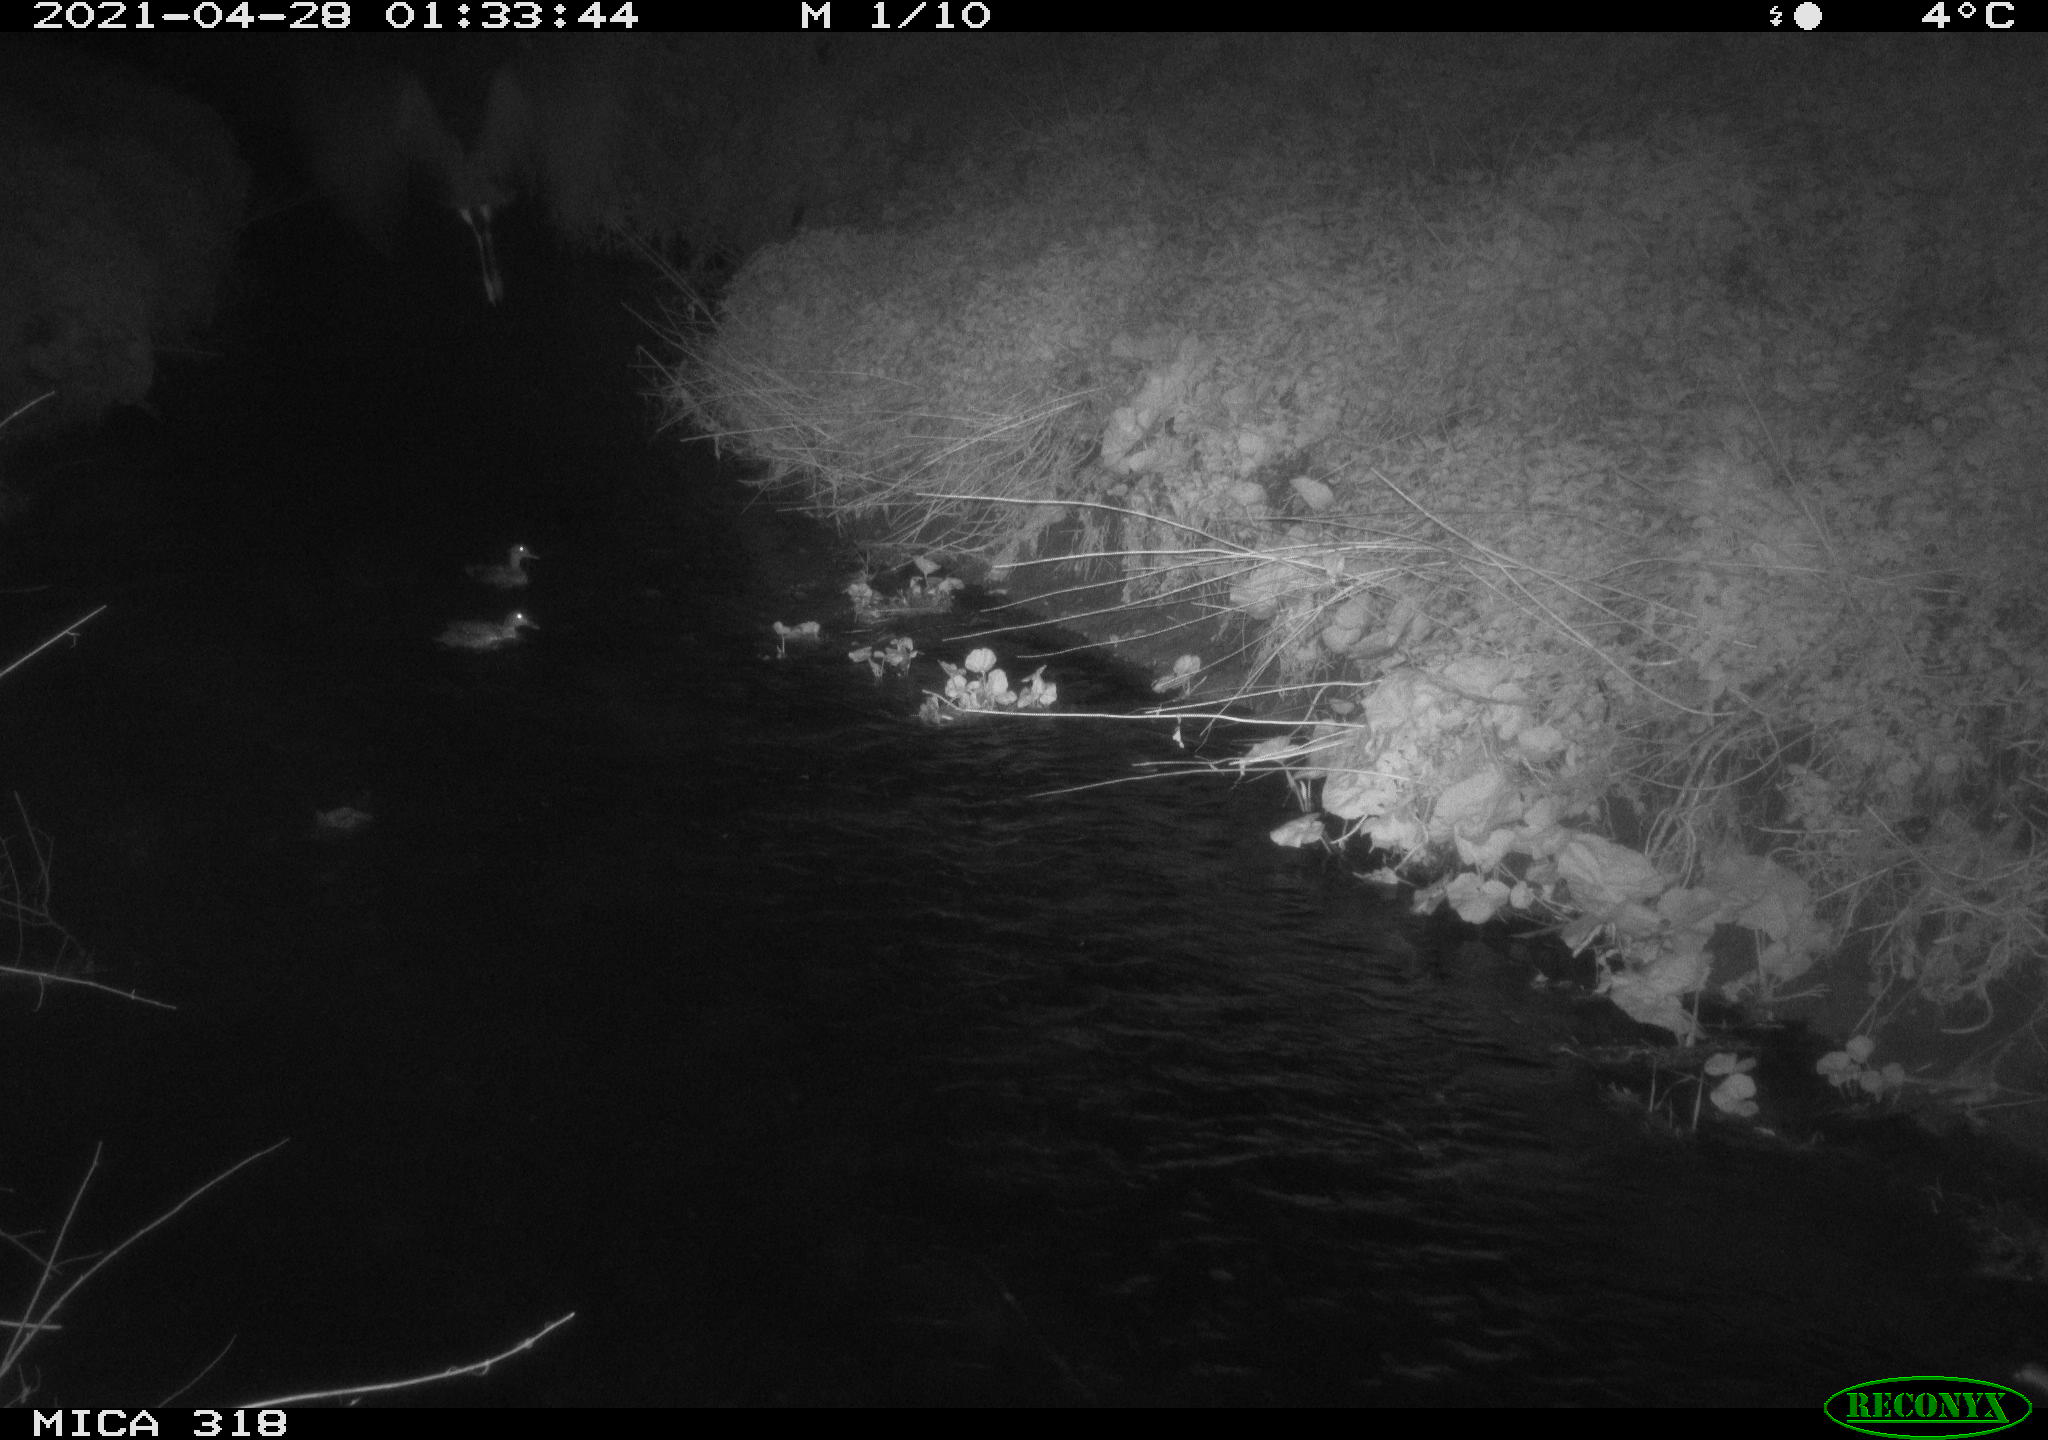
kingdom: Animalia
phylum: Chordata
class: Aves
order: Anseriformes
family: Anatidae
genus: Anas
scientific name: Anas platyrhynchos
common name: Mallard
